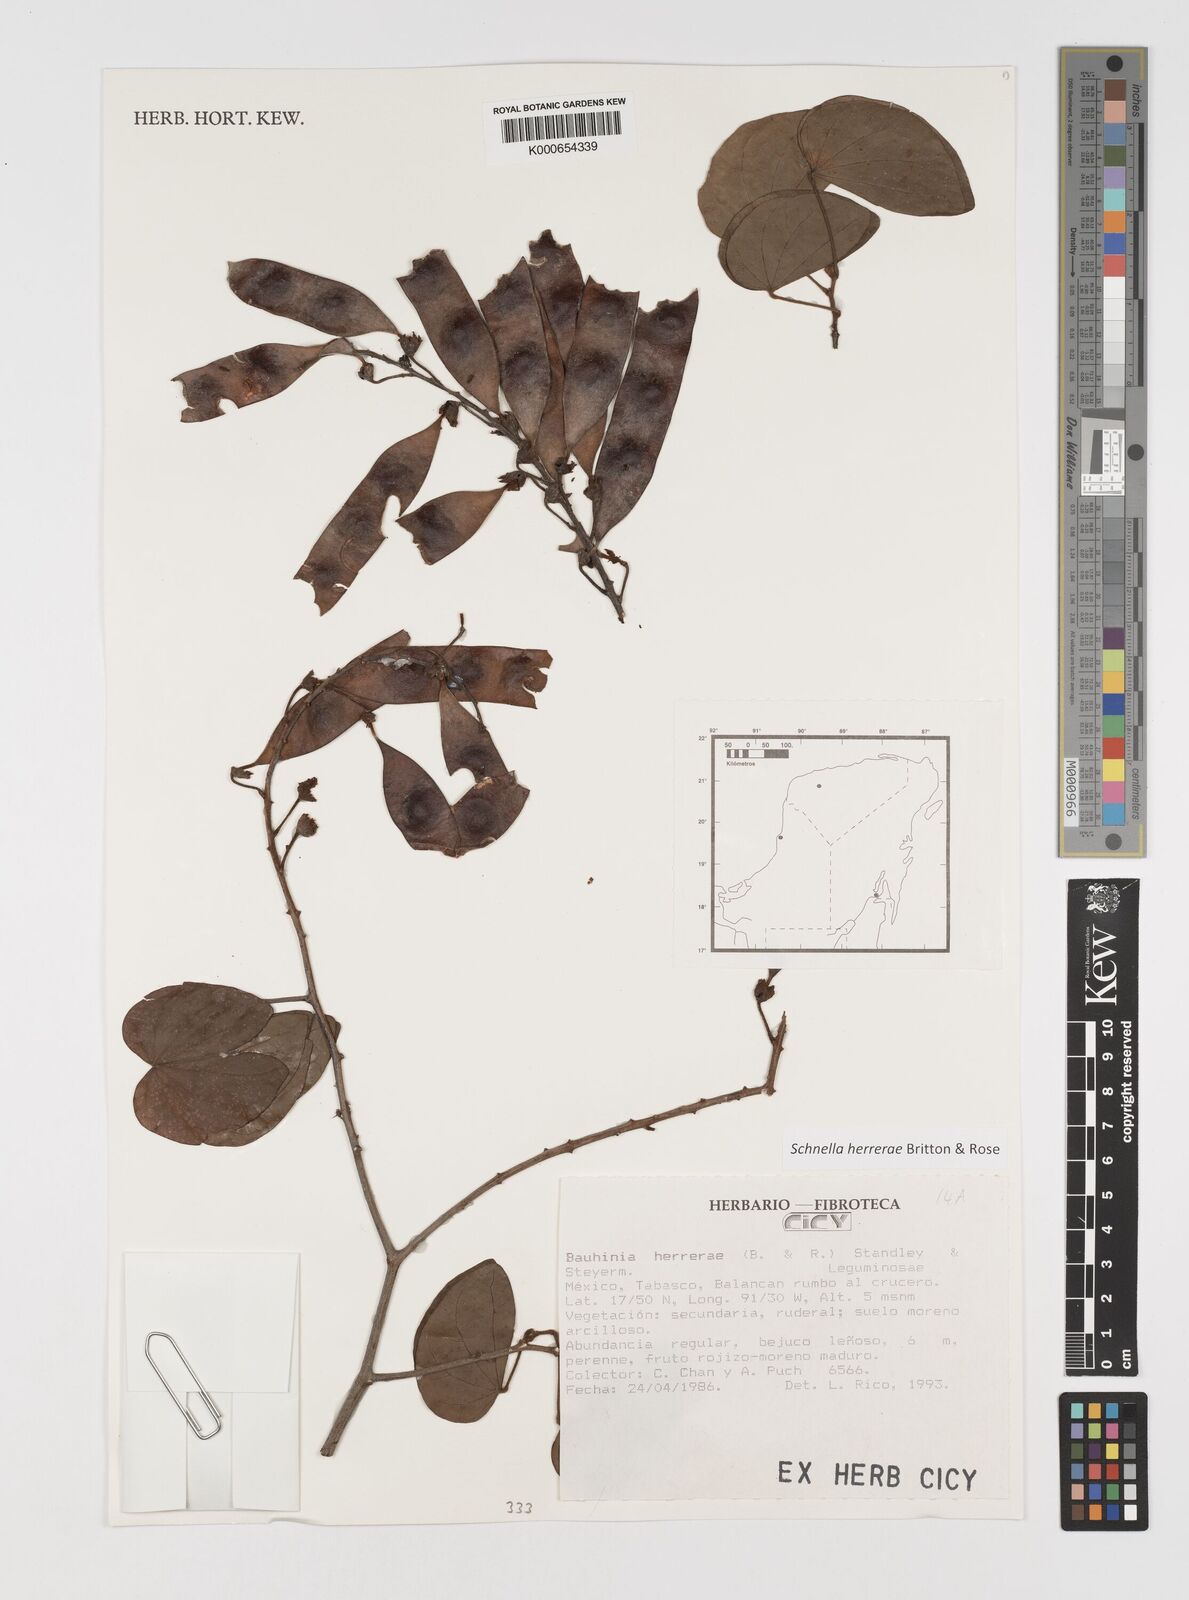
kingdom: Plantae
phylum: Tracheophyta
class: Magnoliopsida
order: Fabales
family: Fabaceae
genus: Schnella
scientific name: Schnella herrerae
